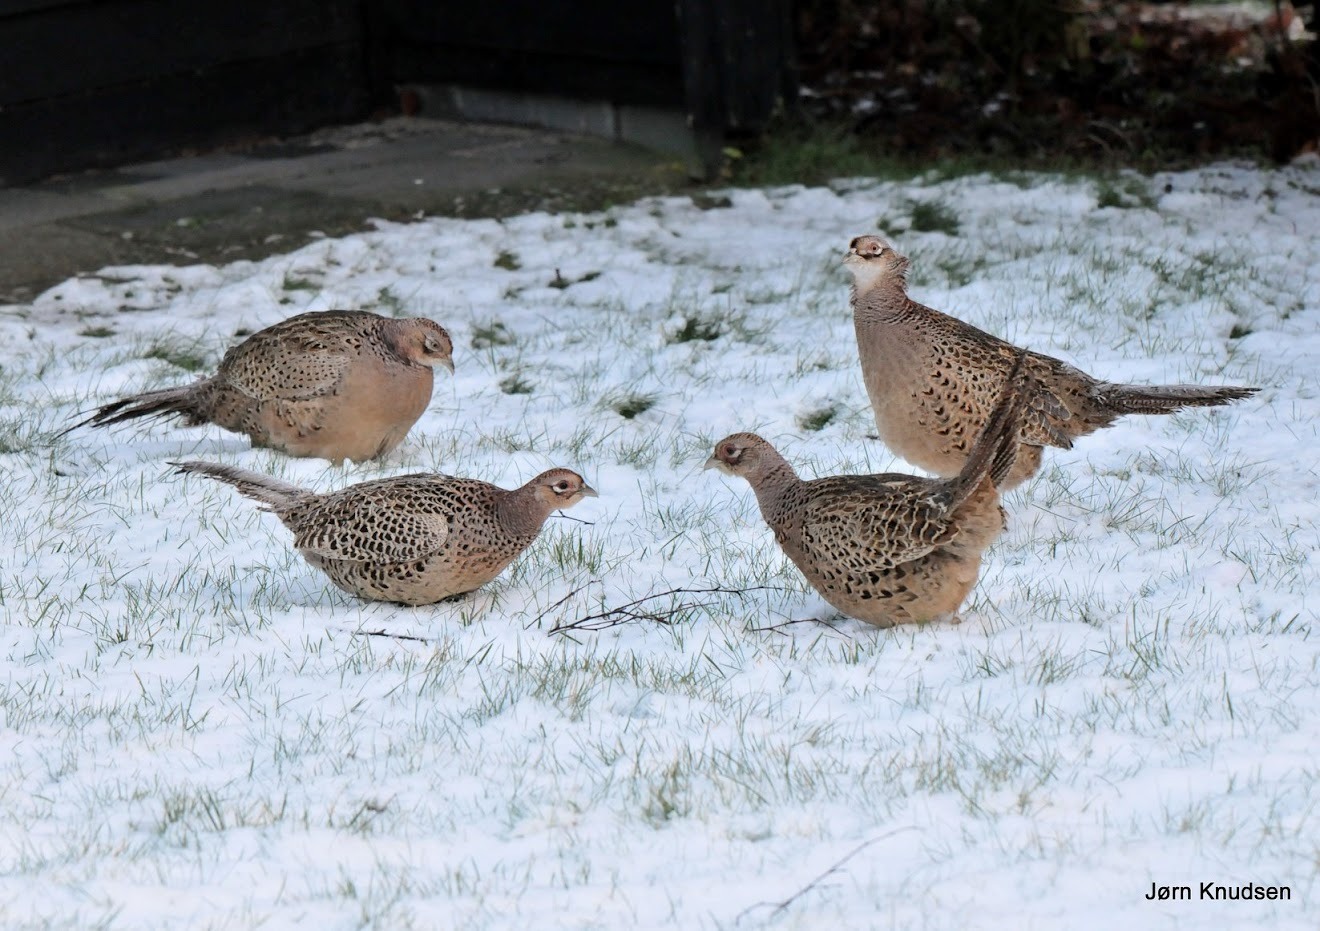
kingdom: Animalia
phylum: Chordata
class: Aves
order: Galliformes
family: Phasianidae
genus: Phasianus
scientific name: Phasianus colchicus
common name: Fasan
